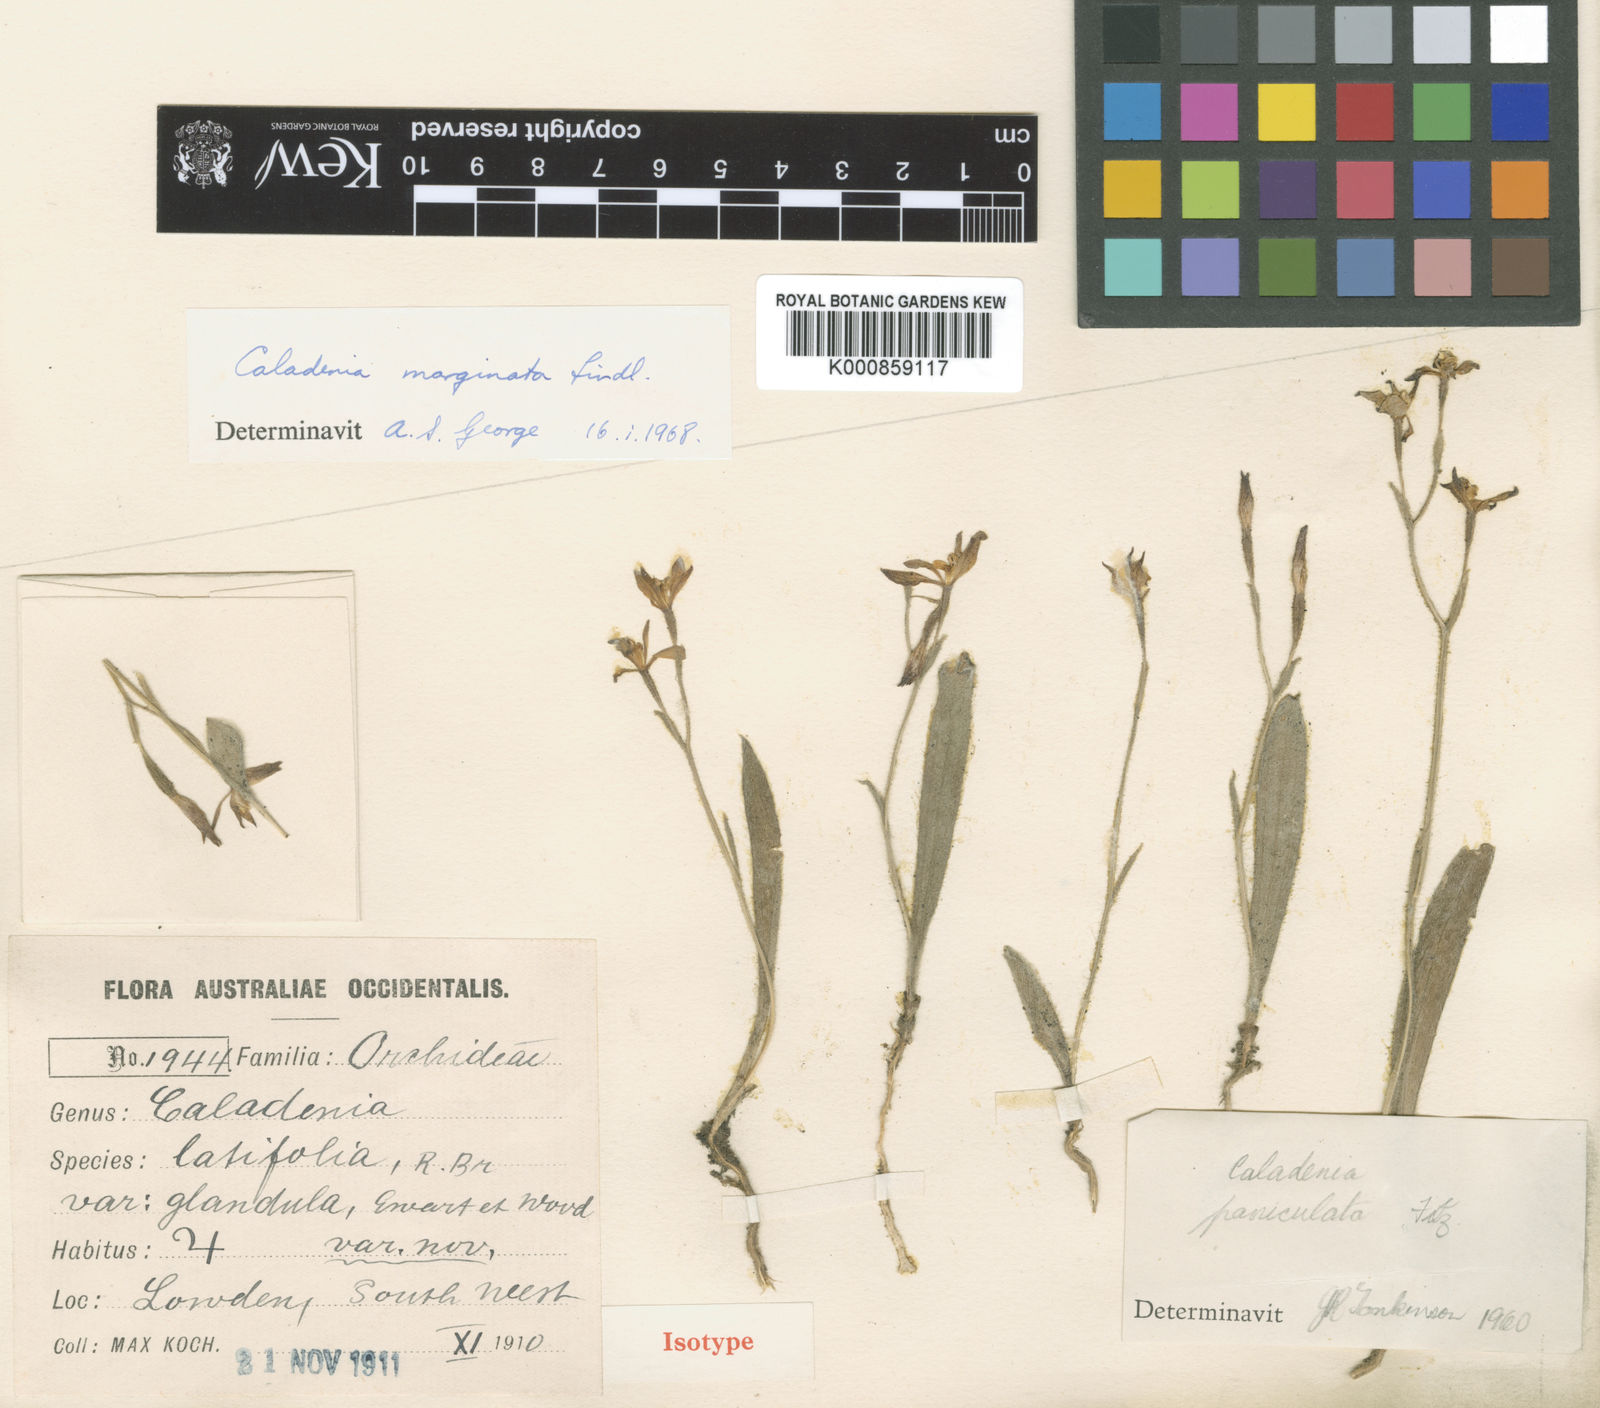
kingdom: Plantae
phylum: Tracheophyta
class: Liliopsida
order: Asparagales
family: Orchidaceae
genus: Caladenia
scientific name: Caladenia marginata
